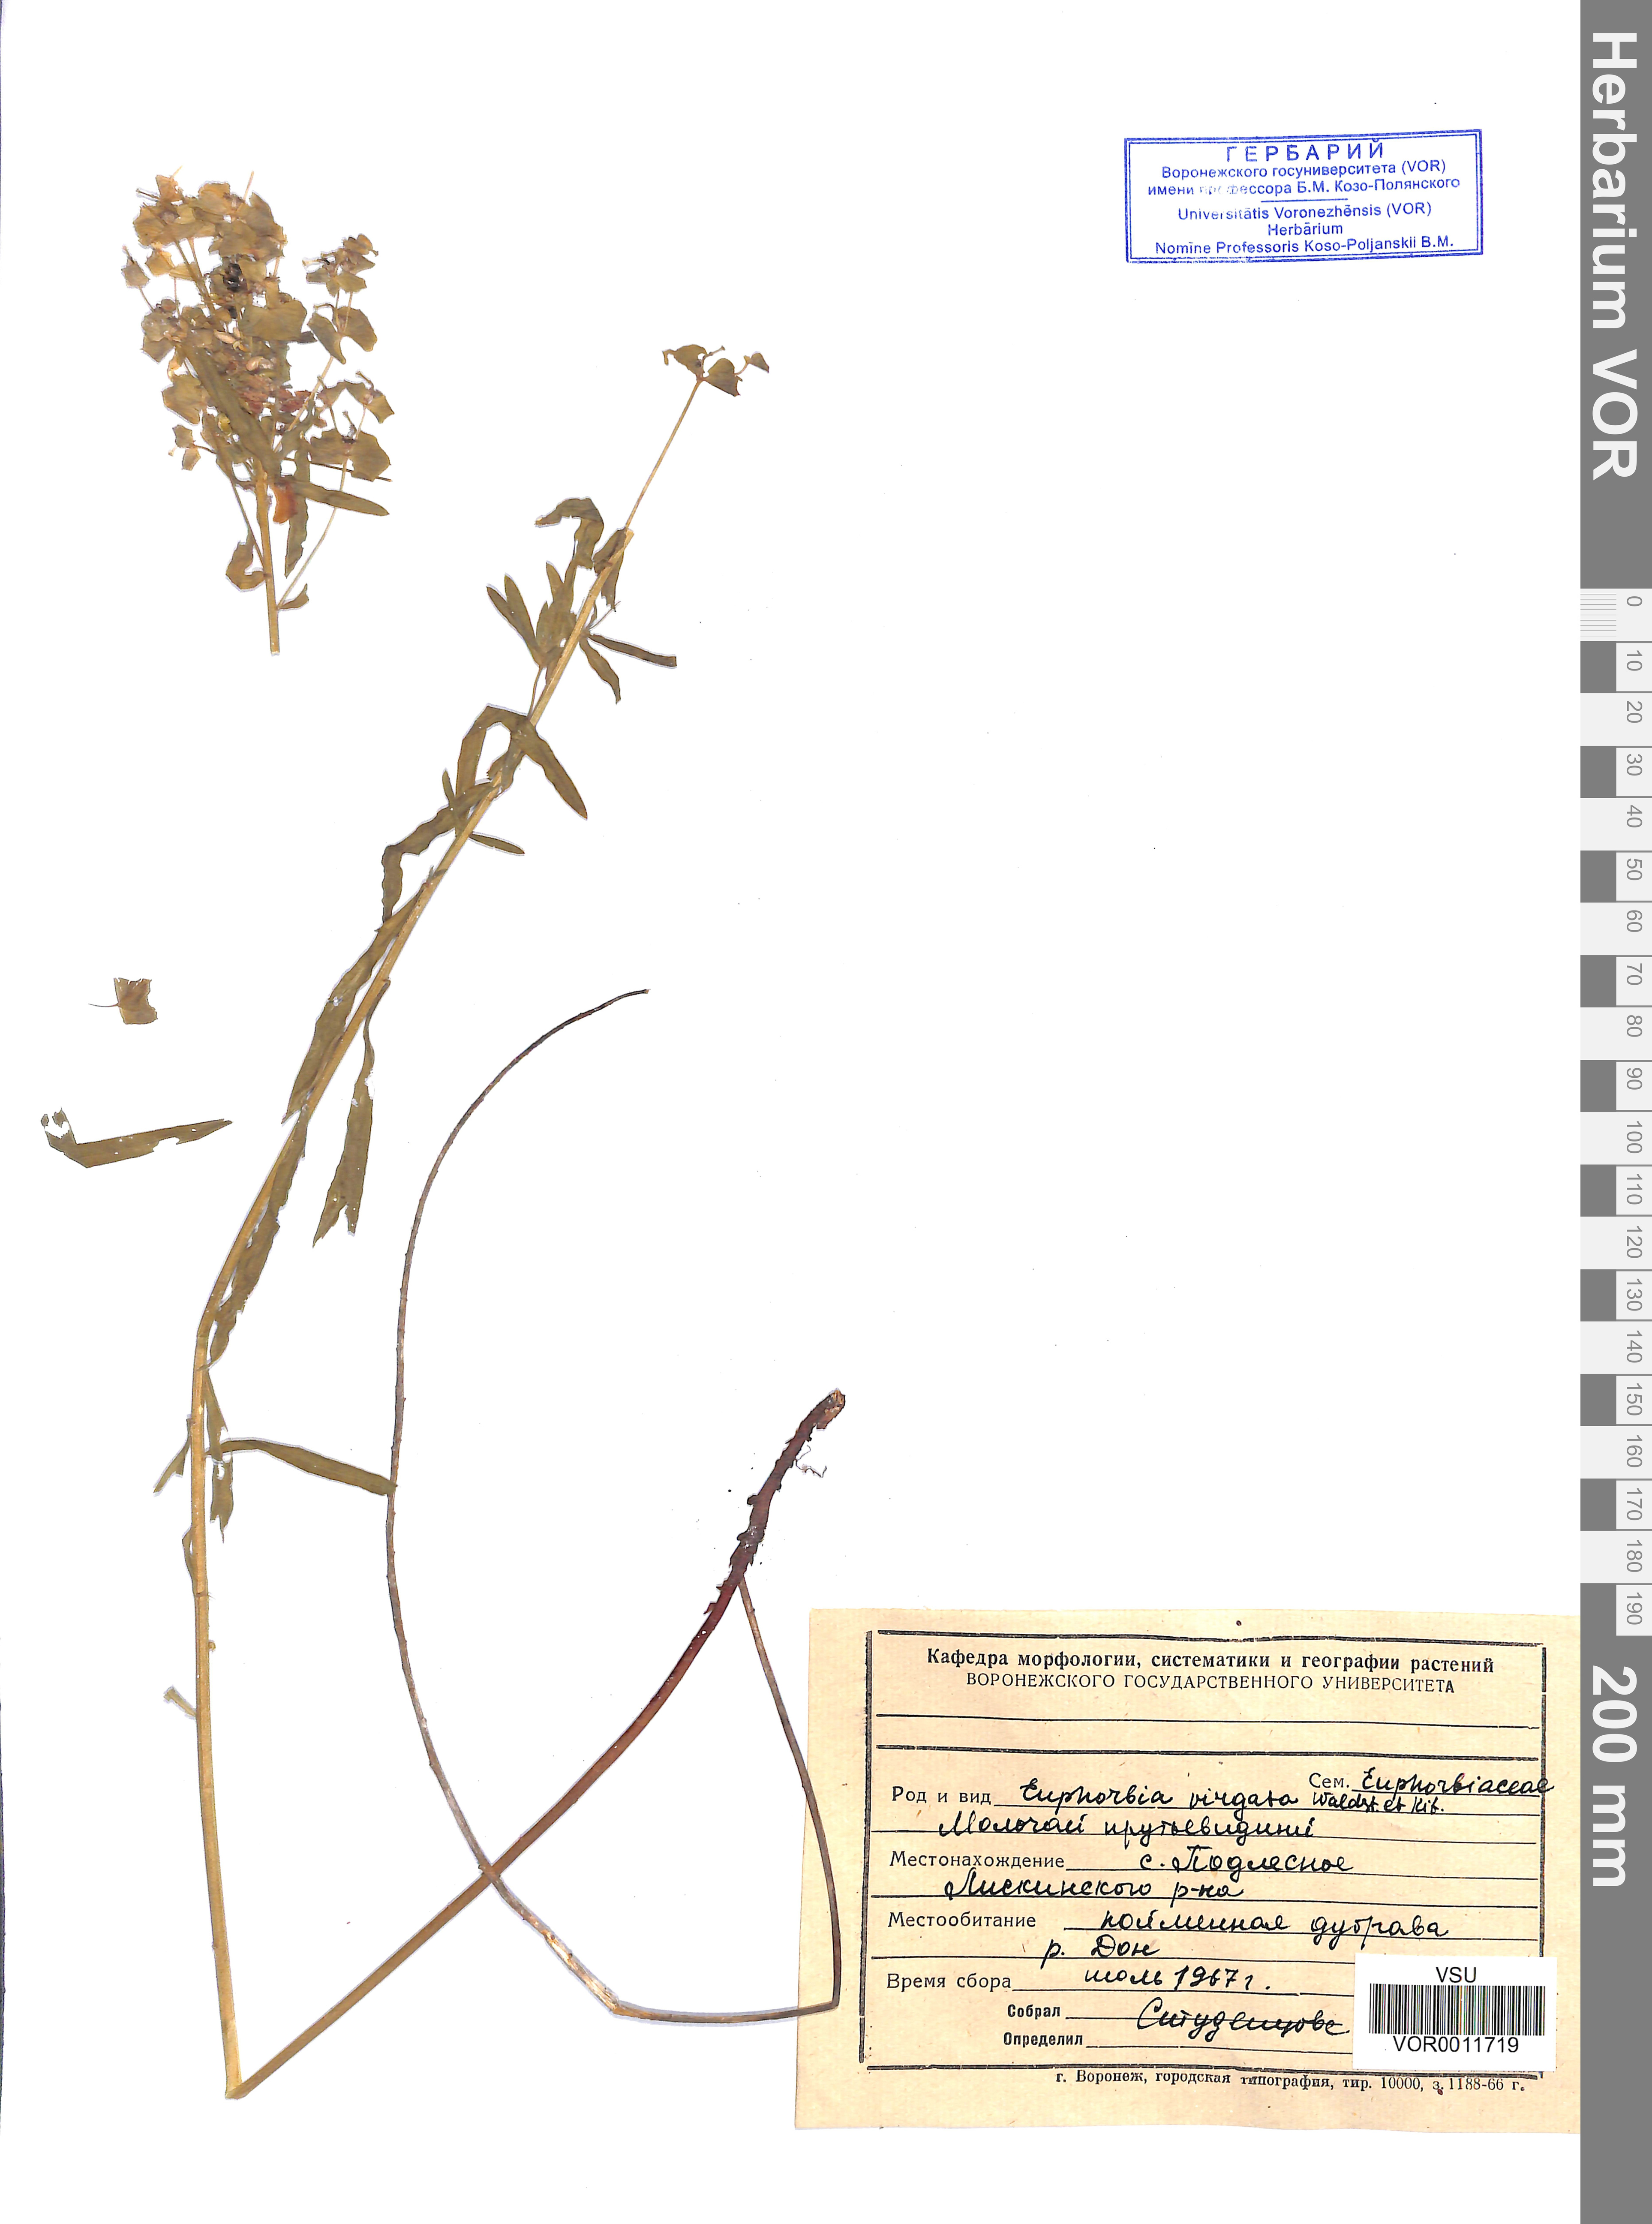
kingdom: Plantae
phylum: Tracheophyta
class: Magnoliopsida
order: Malpighiales
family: Euphorbiaceae
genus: Euphorbia
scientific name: Euphorbia virgata
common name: Leafy spurge
